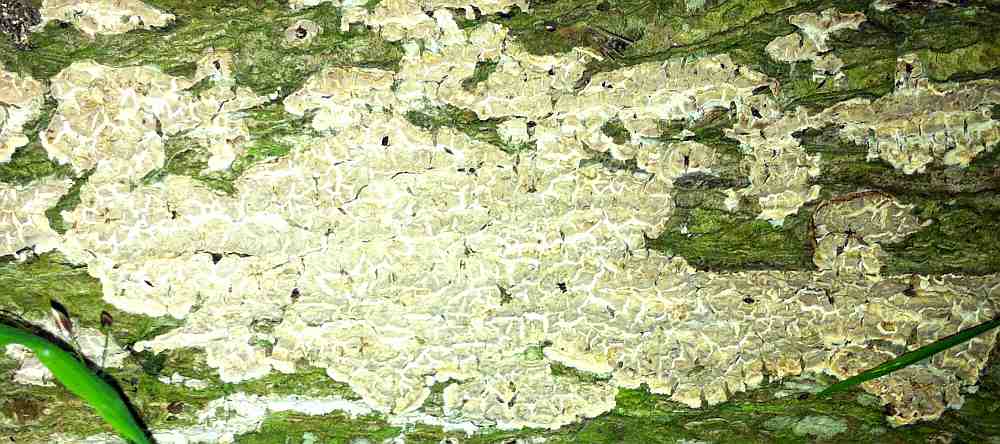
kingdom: Fungi
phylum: Basidiomycota
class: Agaricomycetes
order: Agaricales
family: Physalacriaceae
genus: Cylindrobasidium
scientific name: Cylindrobasidium evolvens
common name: sprækkehinde
